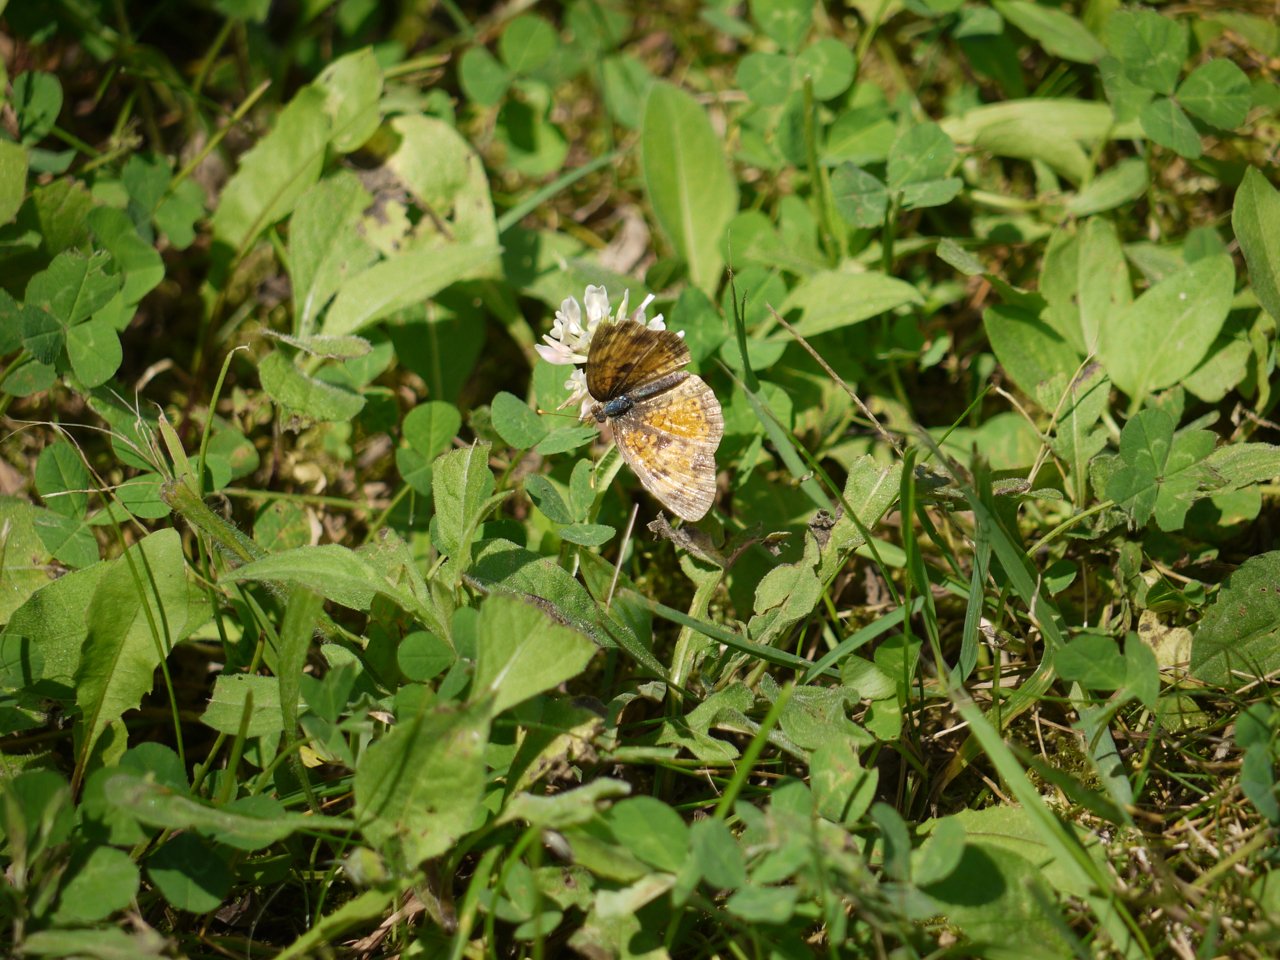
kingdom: Animalia
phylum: Arthropoda
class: Insecta
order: Lepidoptera
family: Nymphalidae
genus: Phyciodes
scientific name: Phyciodes tharos
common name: Northern Crescent
